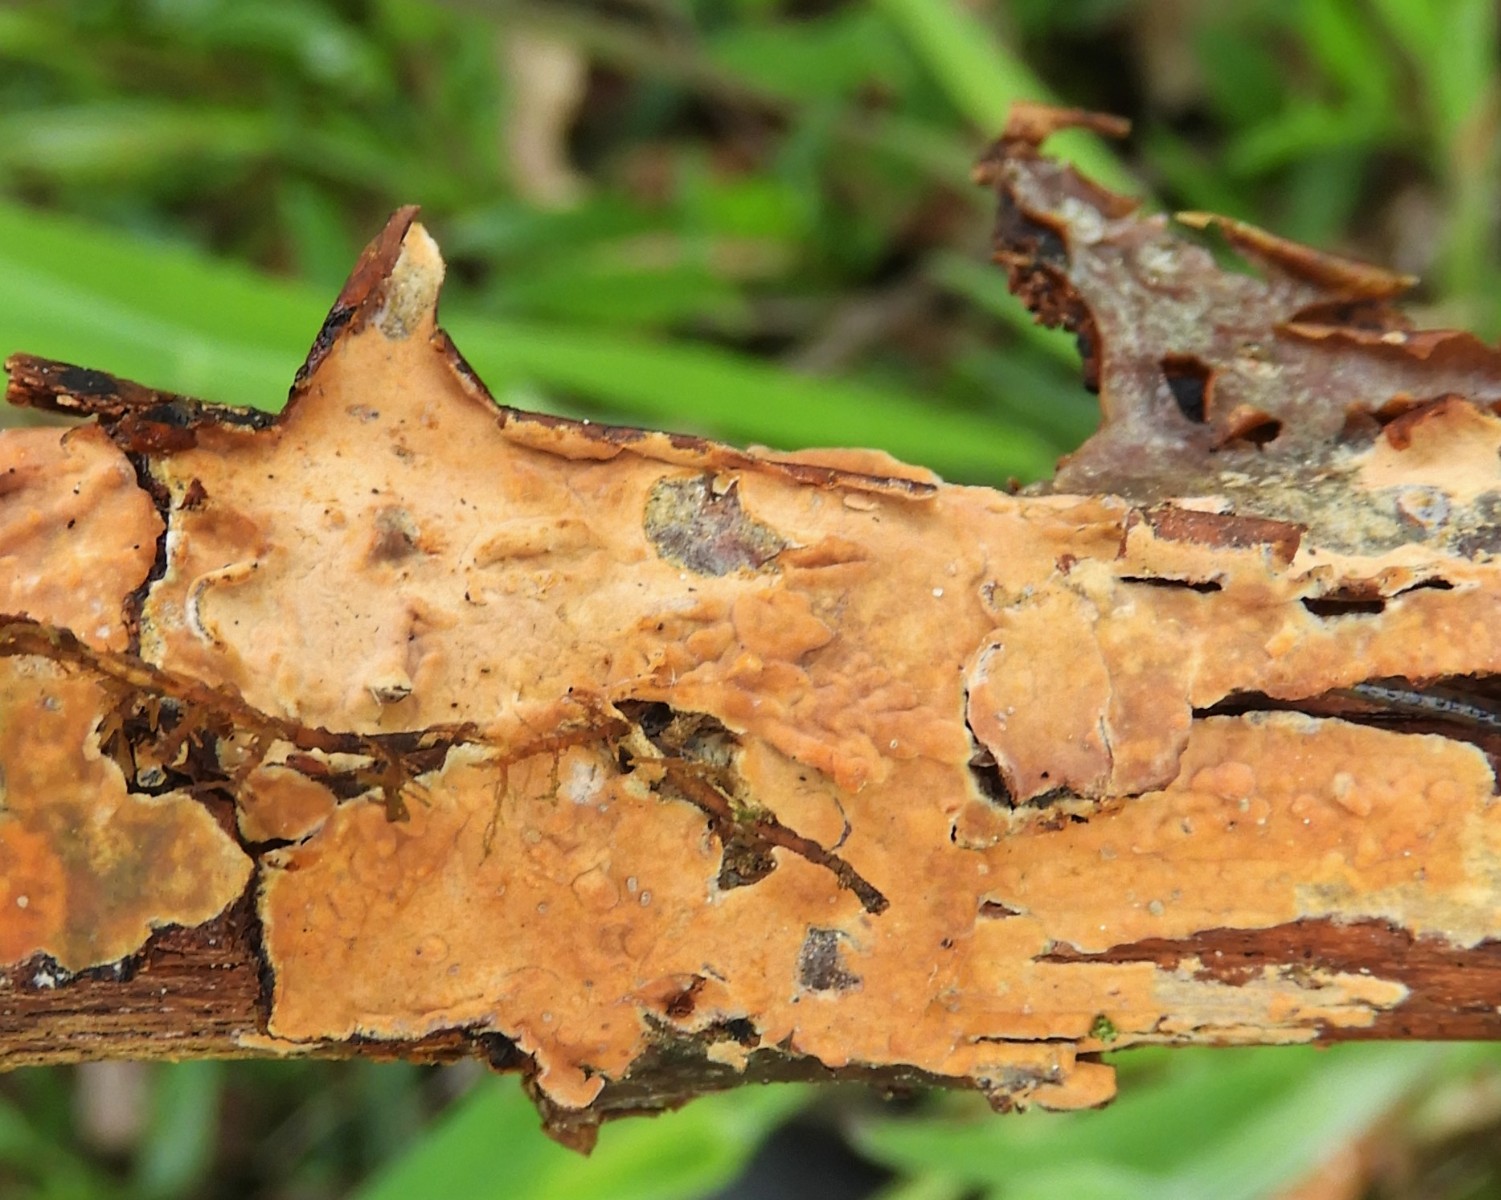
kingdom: Fungi
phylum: Basidiomycota
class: Agaricomycetes
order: Russulales
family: Peniophoraceae
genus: Peniophora
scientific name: Peniophora incarnata
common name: laksefarvet voksskind
